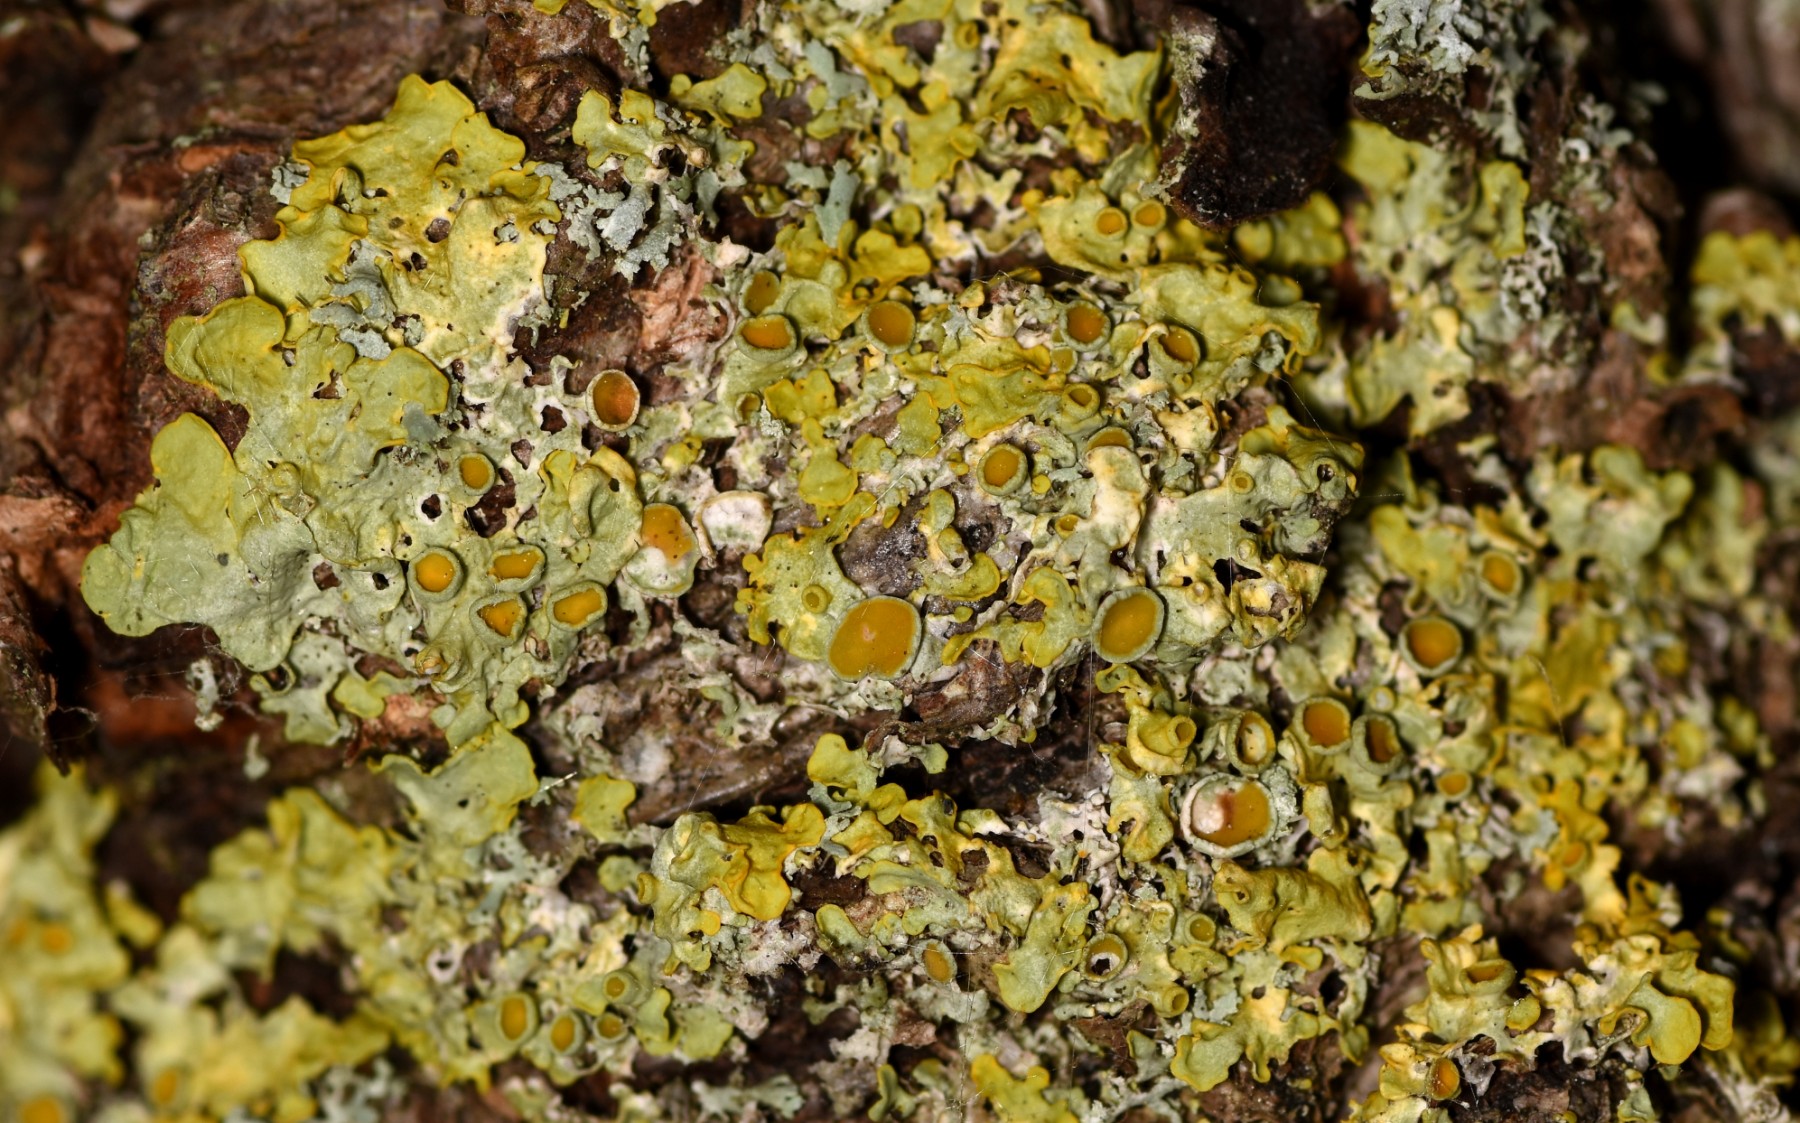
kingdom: Fungi
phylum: Ascomycota
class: Lecanoromycetes
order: Teloschistales
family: Teloschistaceae
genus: Xanthoria
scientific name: Xanthoria parietina
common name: almindelig væggelav
